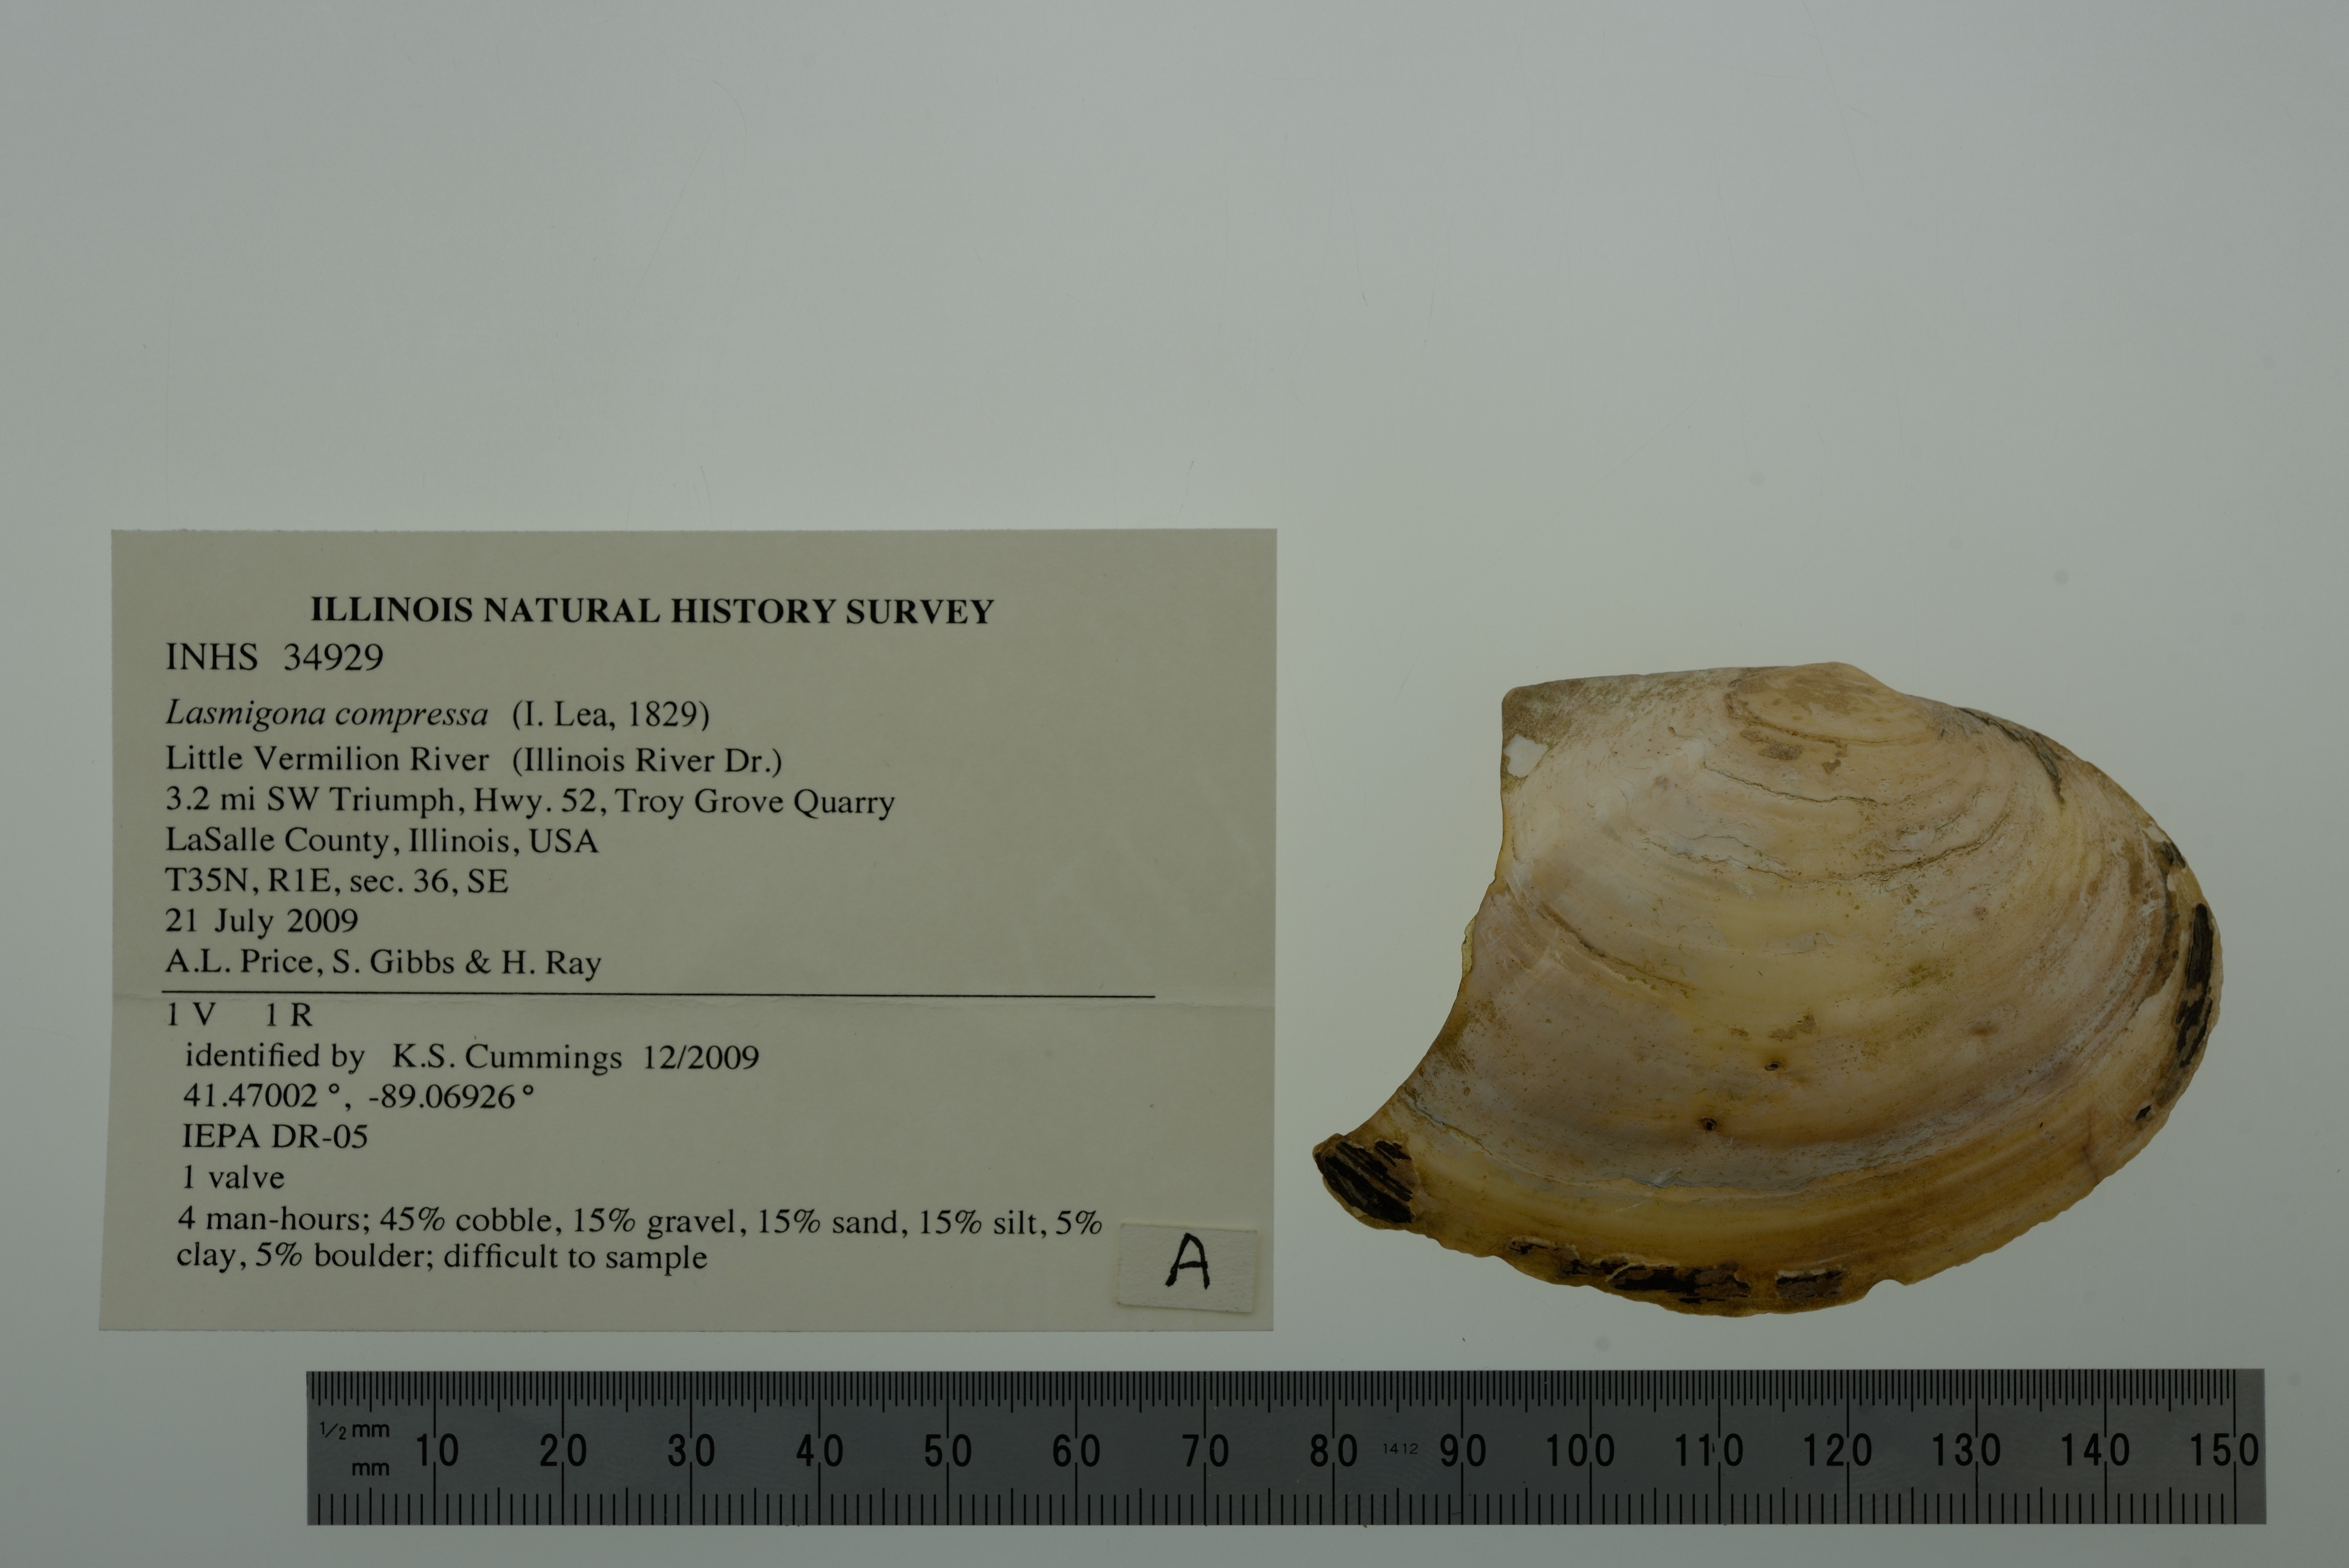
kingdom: Animalia
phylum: Mollusca
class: Bivalvia
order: Unionida
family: Unionidae
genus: Lasmigona
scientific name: Lasmigona compressa
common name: Creek heelsplitter
